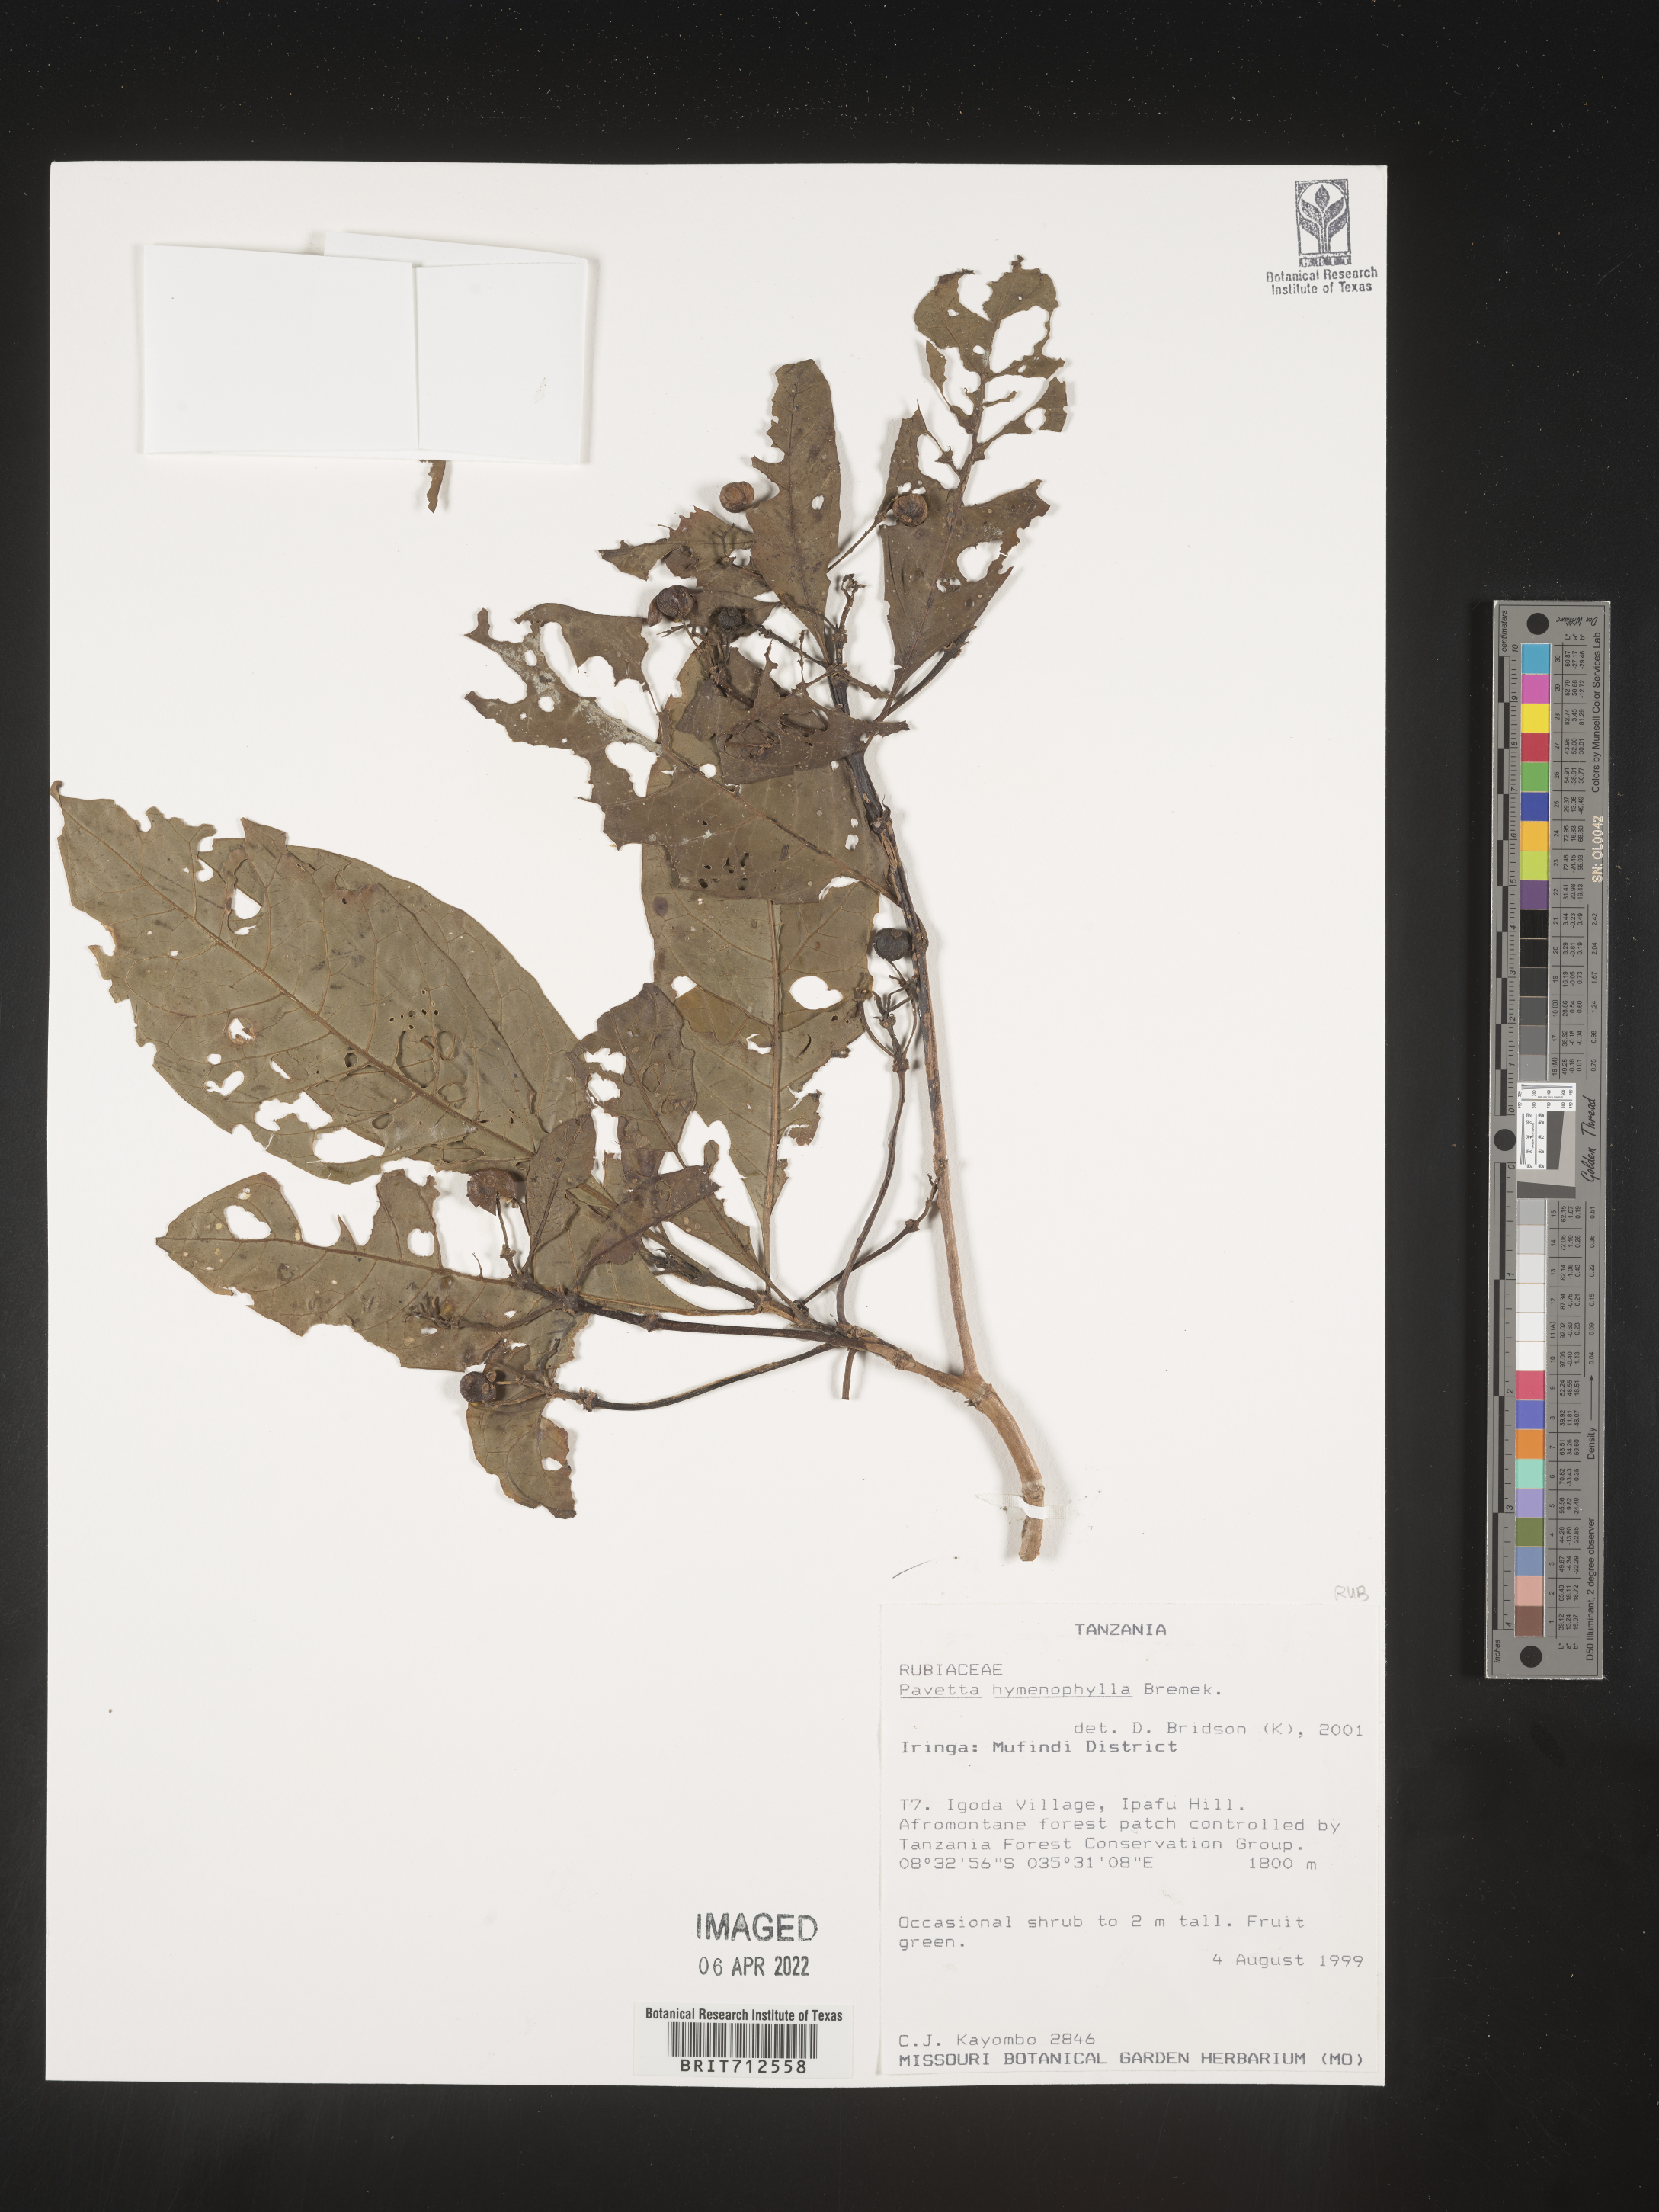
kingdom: Plantae
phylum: Tracheophyta
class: Magnoliopsida
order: Gentianales
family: Rubiaceae
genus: Pavetta
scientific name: Pavetta
